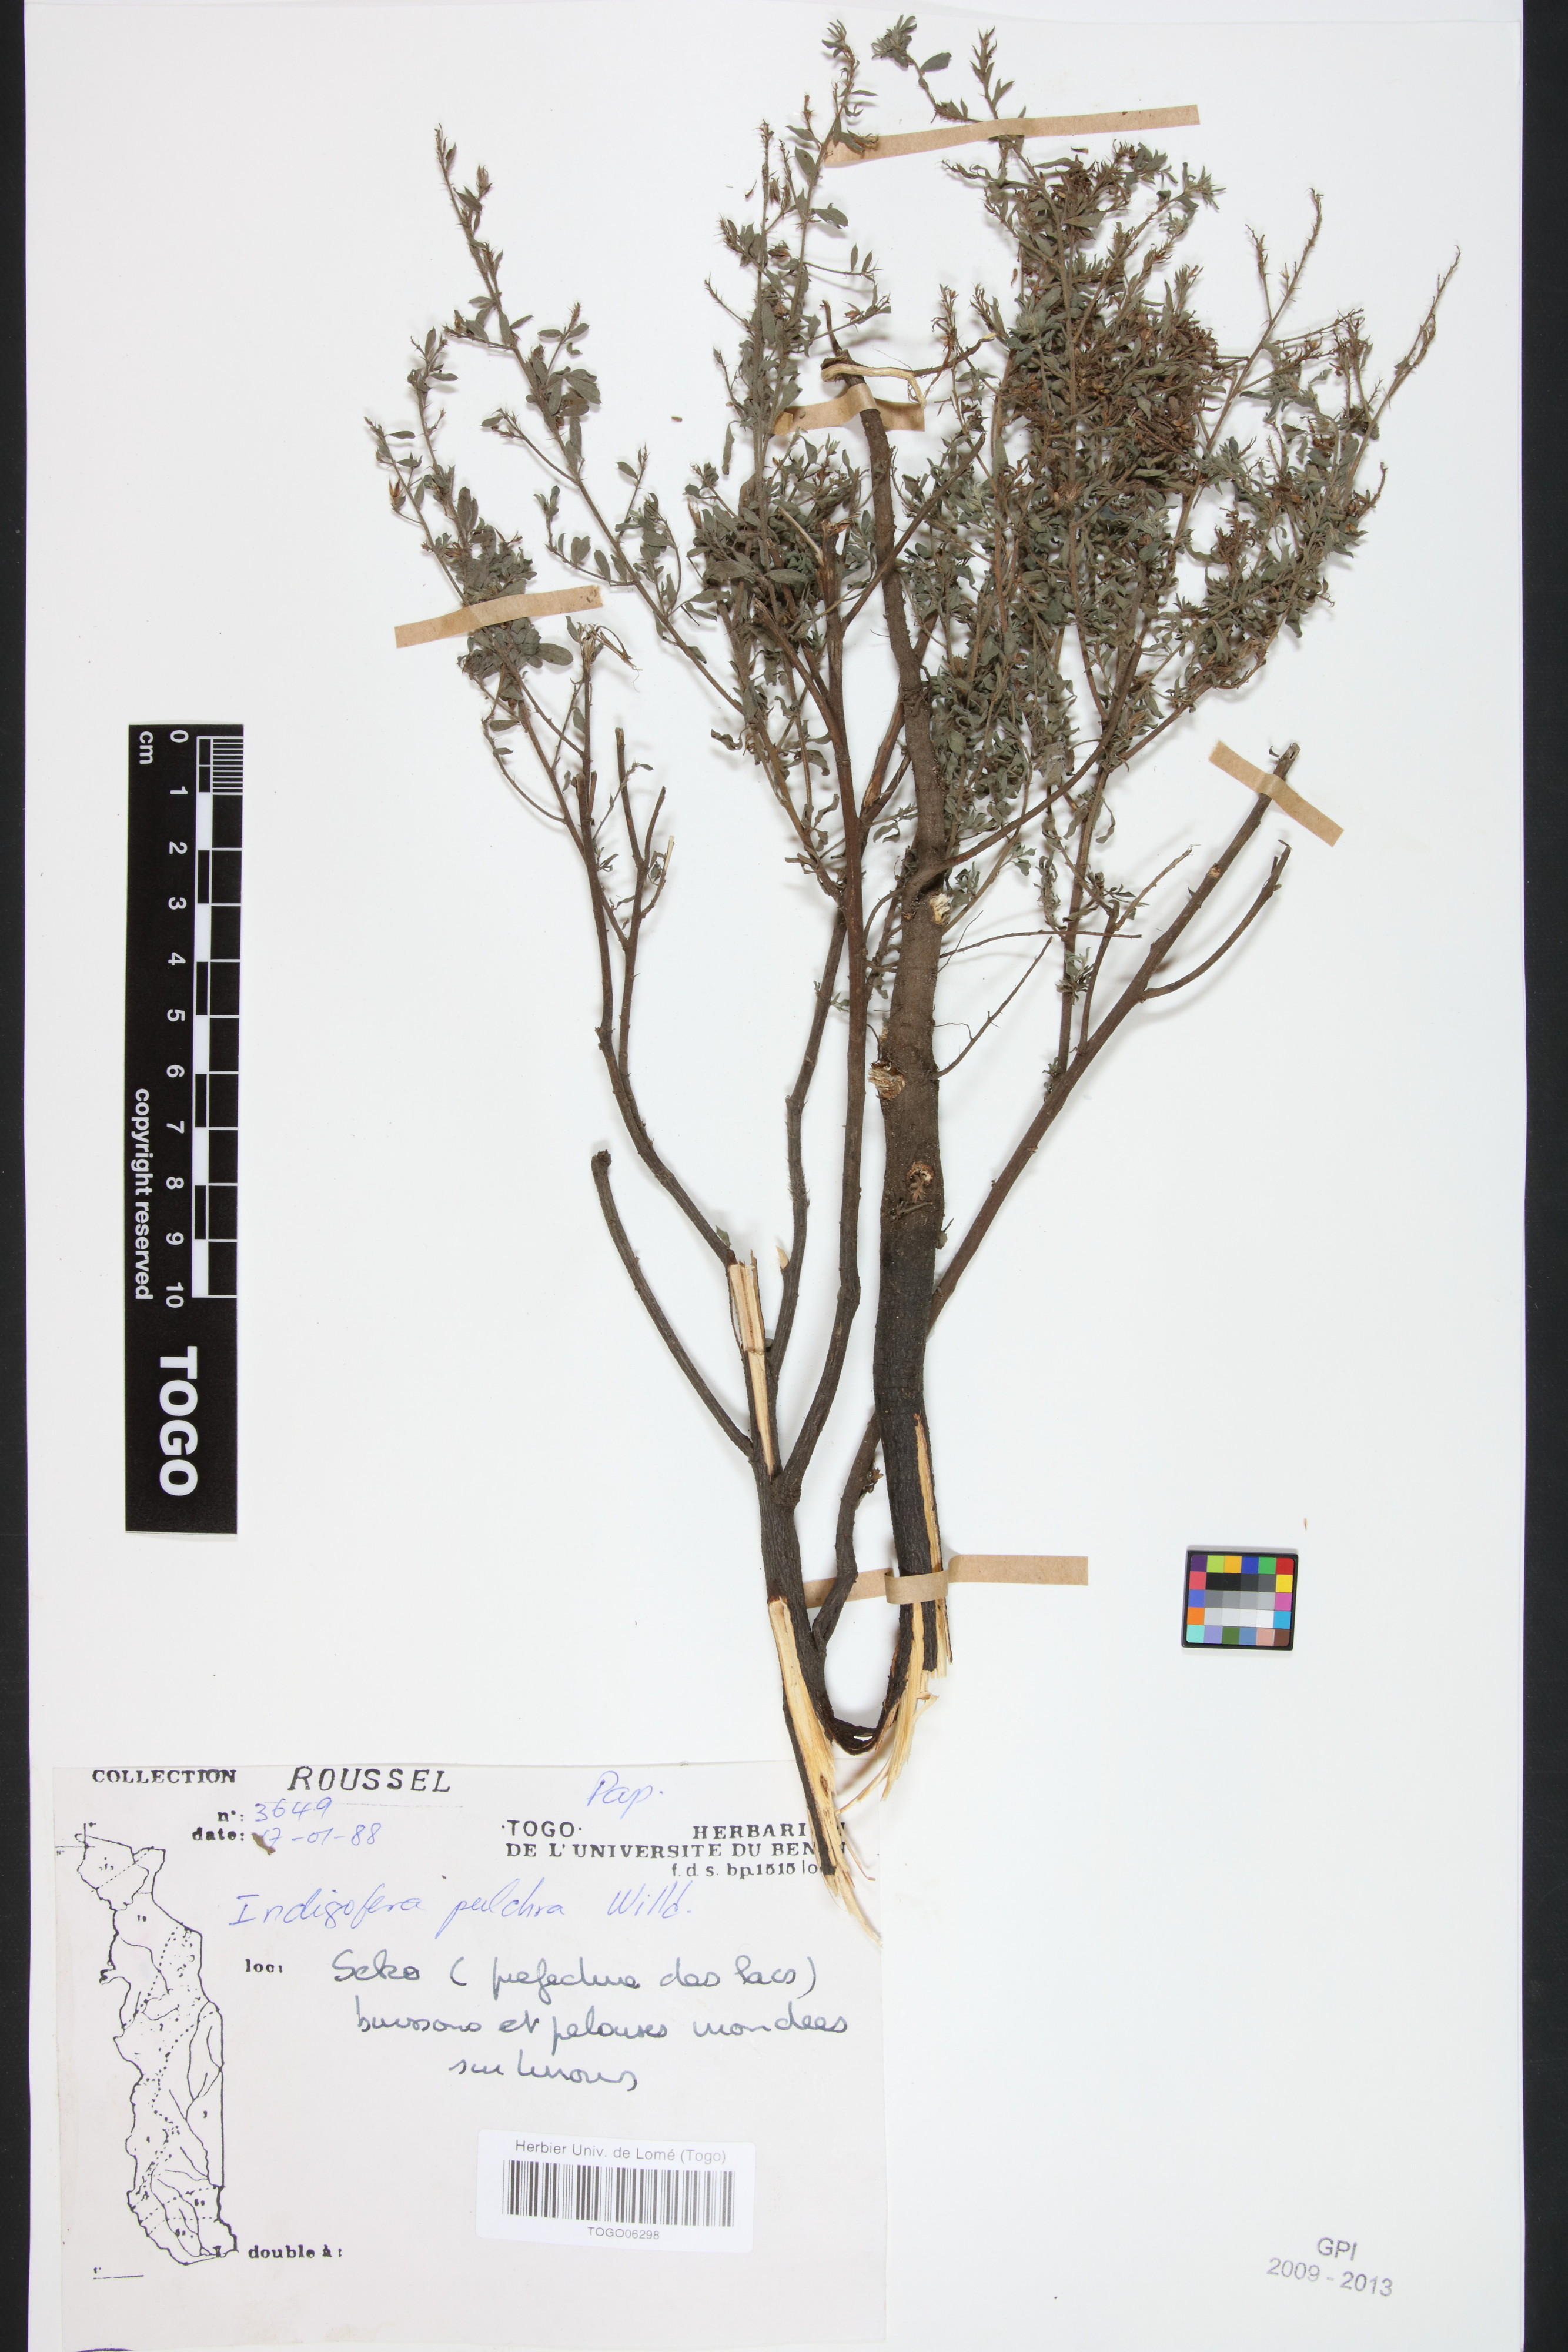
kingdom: Plantae
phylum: Tracheophyta
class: Magnoliopsida
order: Fabales
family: Fabaceae
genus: Indigofera
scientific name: Indigofera pulchra
